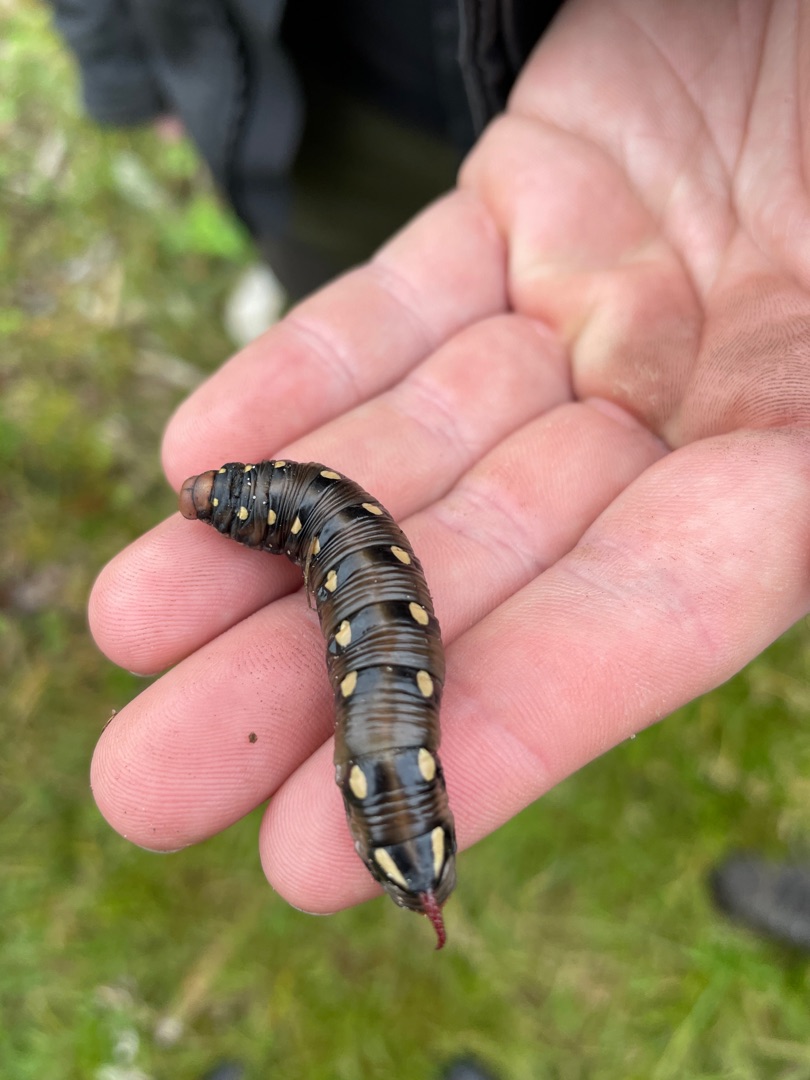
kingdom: Animalia
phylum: Arthropoda
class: Insecta
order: Lepidoptera
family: Sphingidae
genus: Hyles
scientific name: Hyles gallii
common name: Snerresværmer
